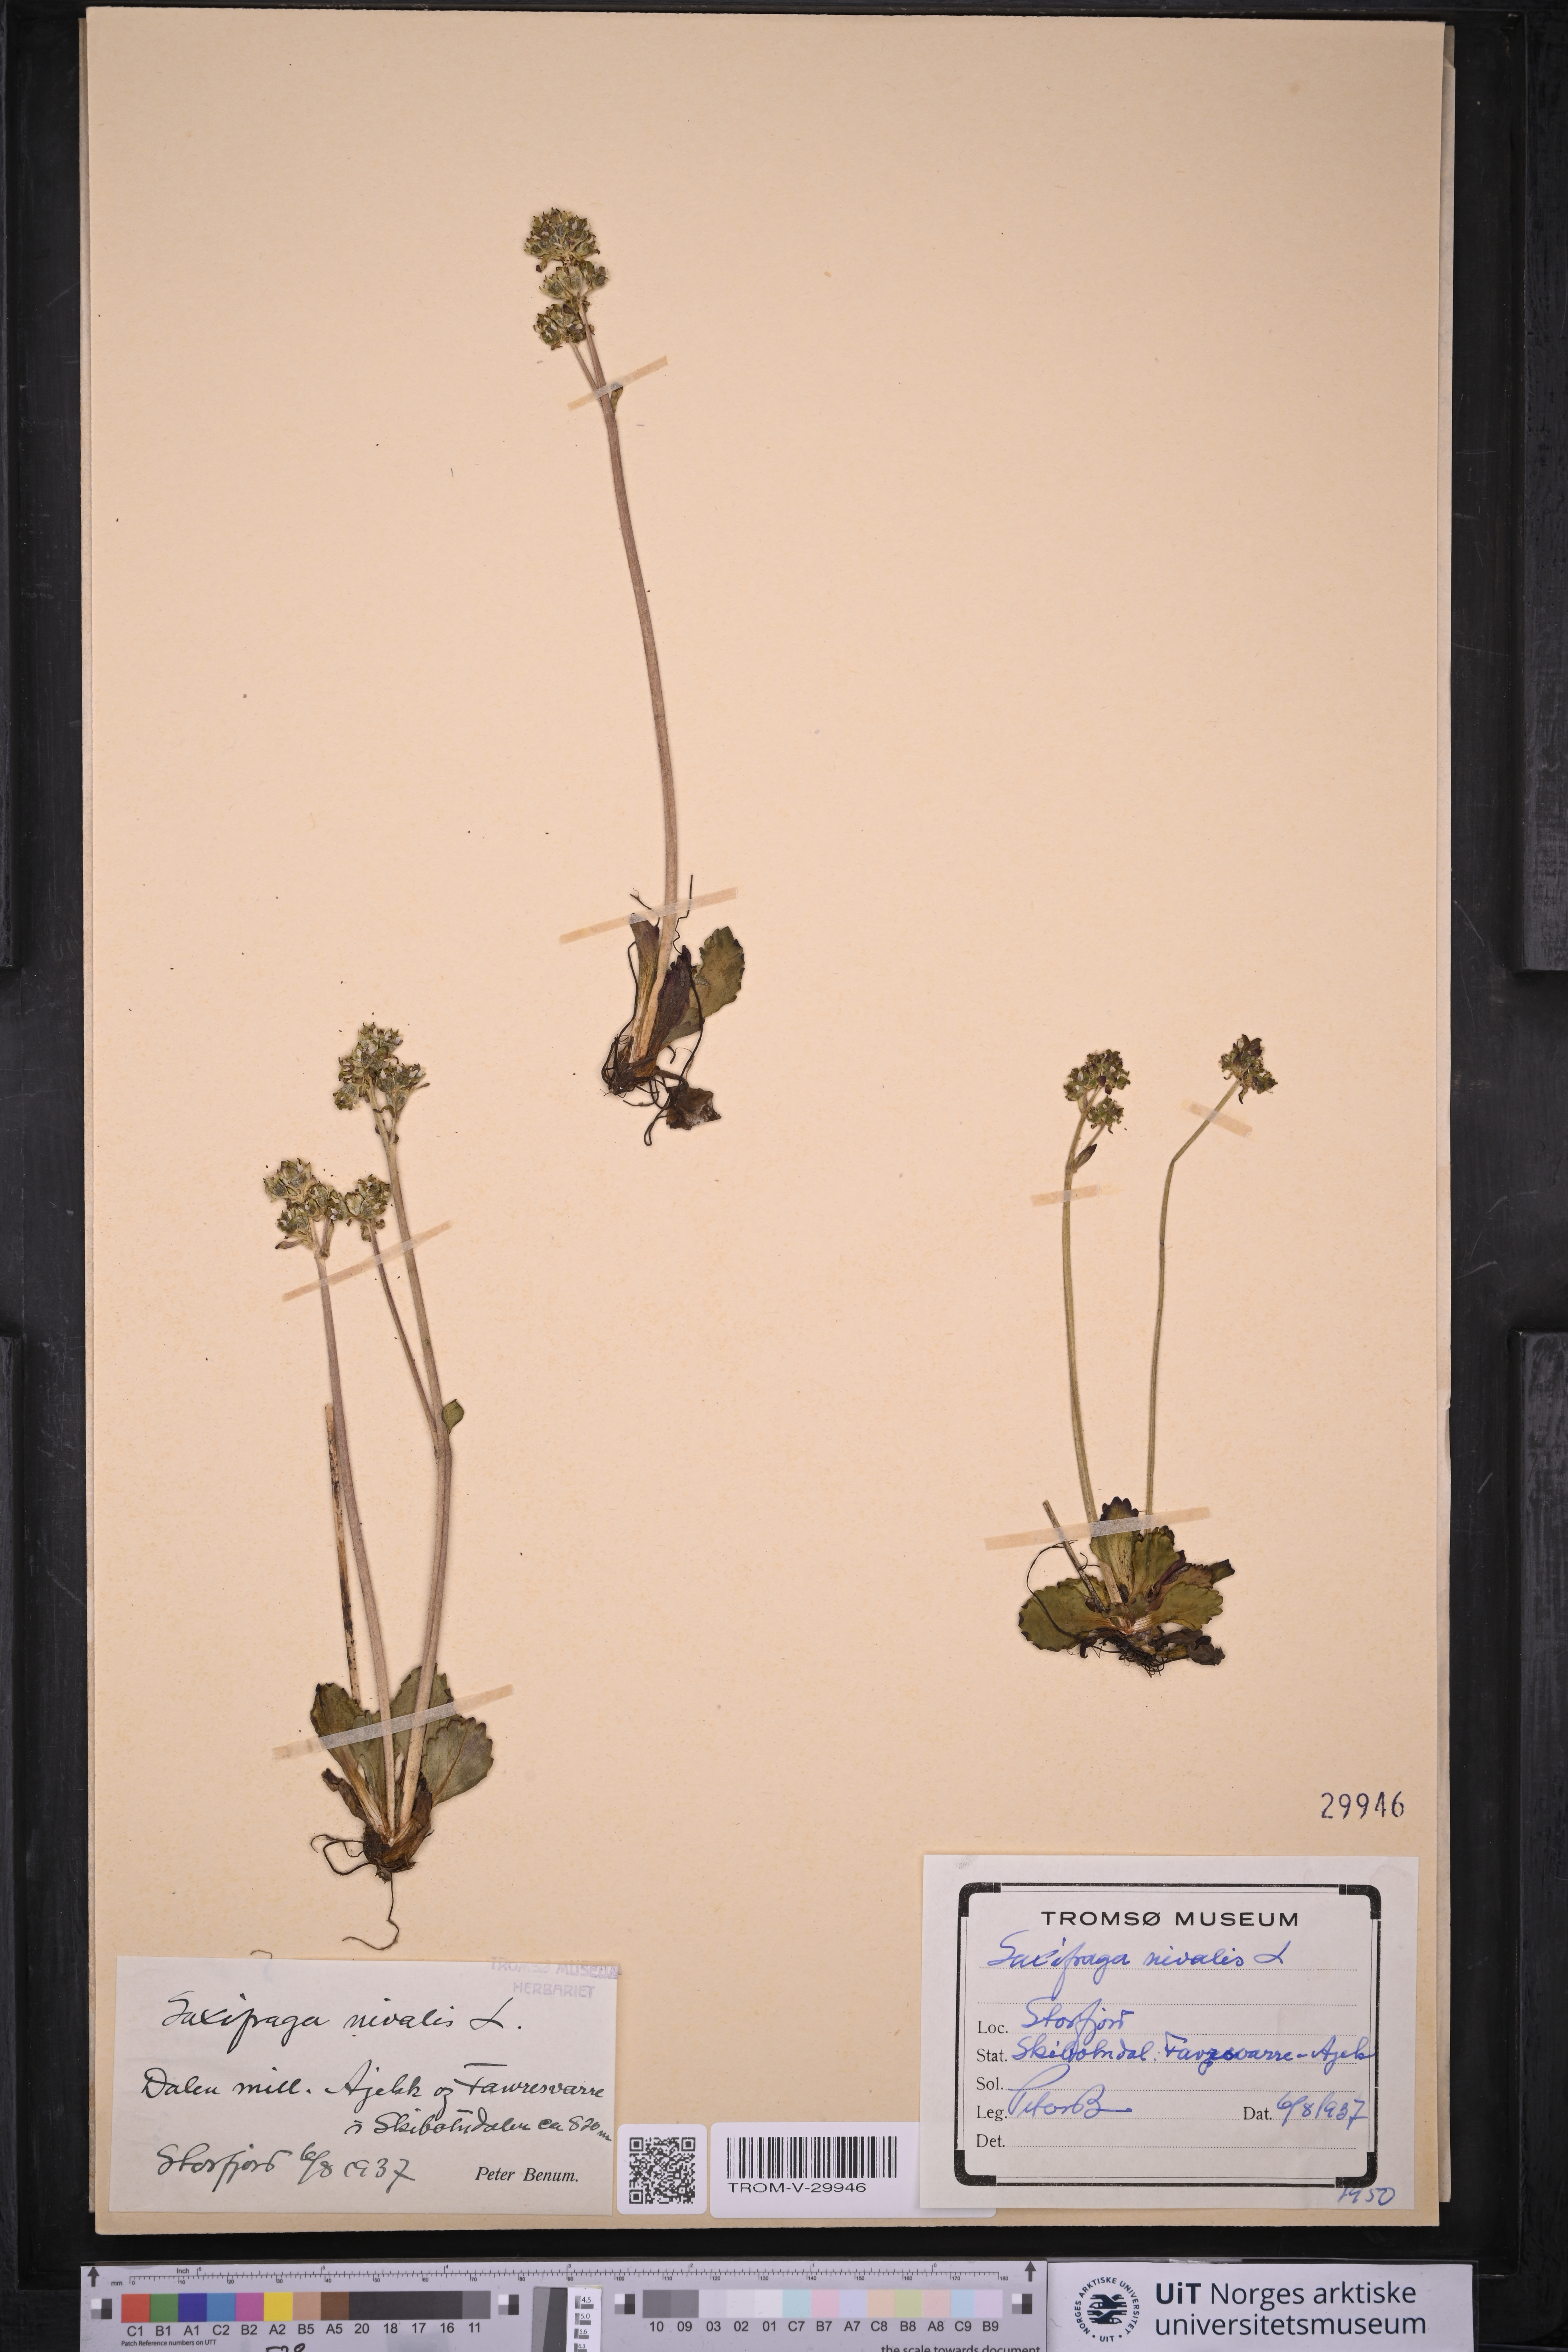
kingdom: Plantae
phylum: Tracheophyta
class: Magnoliopsida
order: Saxifragales
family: Saxifragaceae
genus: Micranthes
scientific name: Micranthes nivalis
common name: Alpine saxifrage
